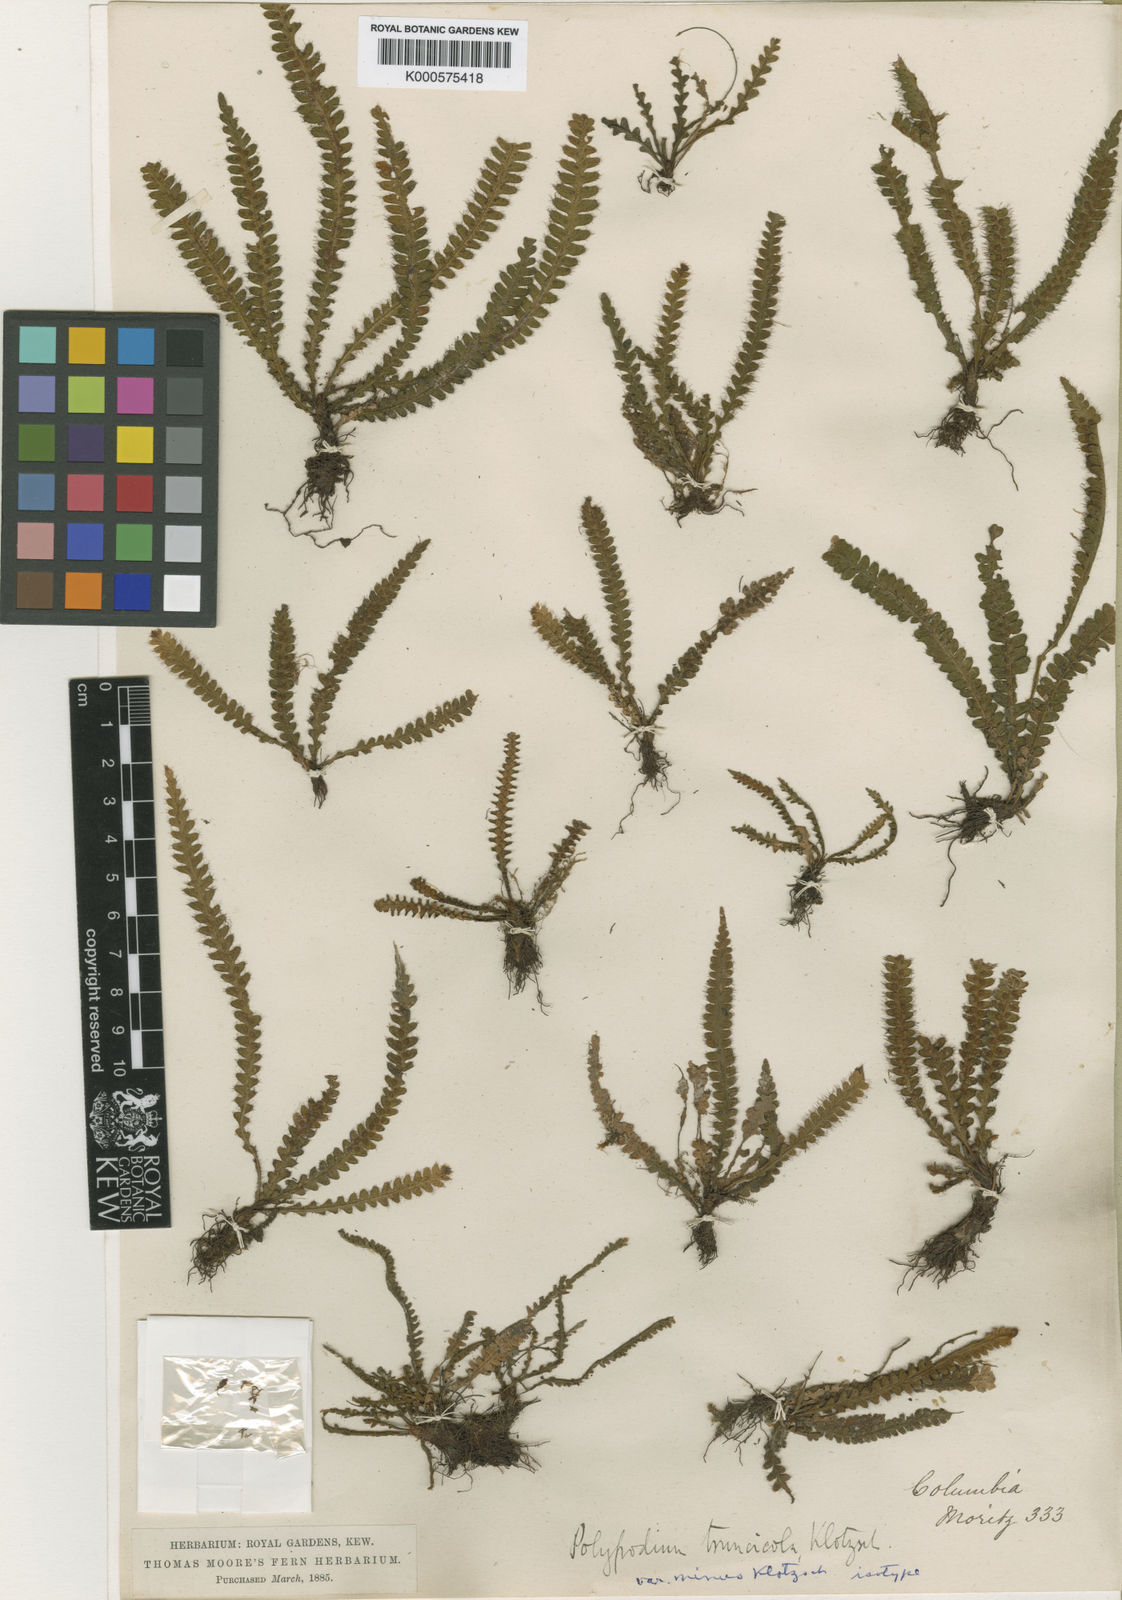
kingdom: Plantae
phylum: Tracheophyta
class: Polypodiopsida
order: Polypodiales
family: Polypodiaceae
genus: Moranopteris
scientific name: Moranopteris truncicola
